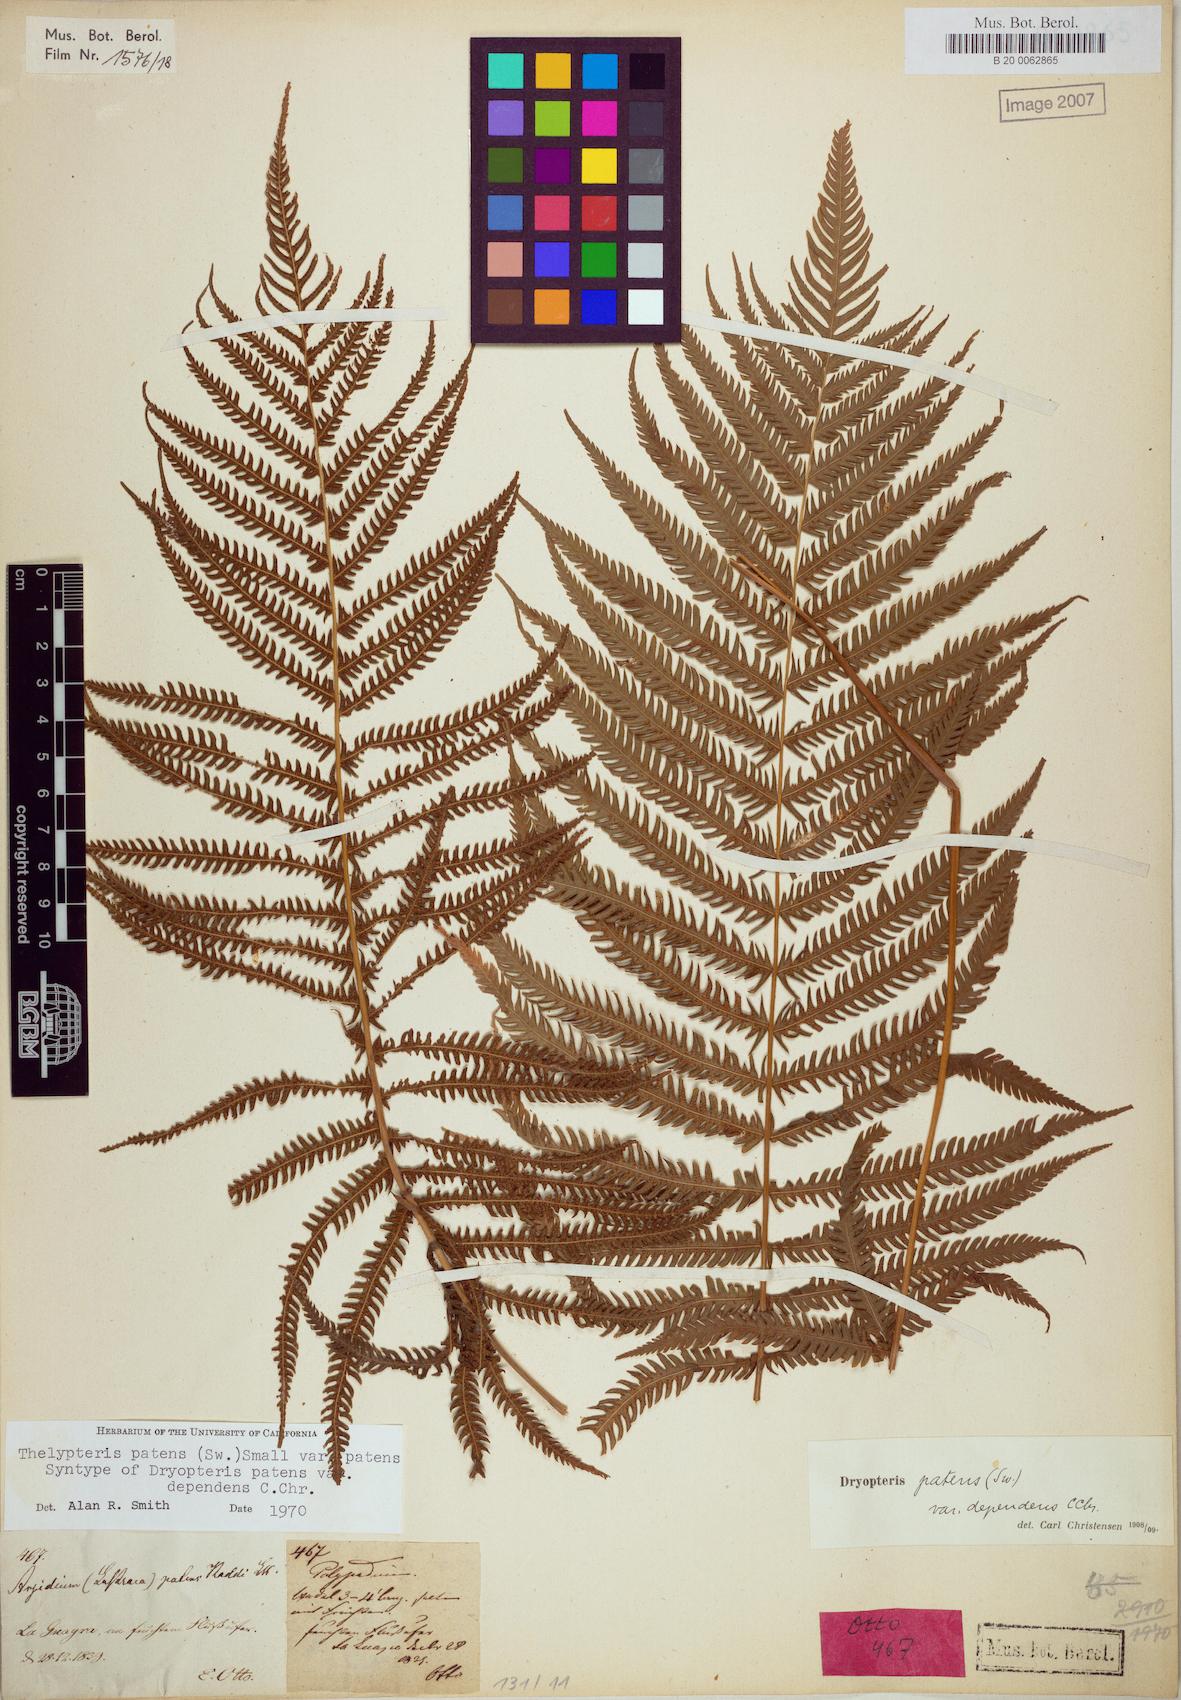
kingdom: Plantae
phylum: Tracheophyta
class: Polypodiopsida
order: Polypodiales
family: Thelypteridaceae
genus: Pelazoneuron
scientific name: Pelazoneuron patens
